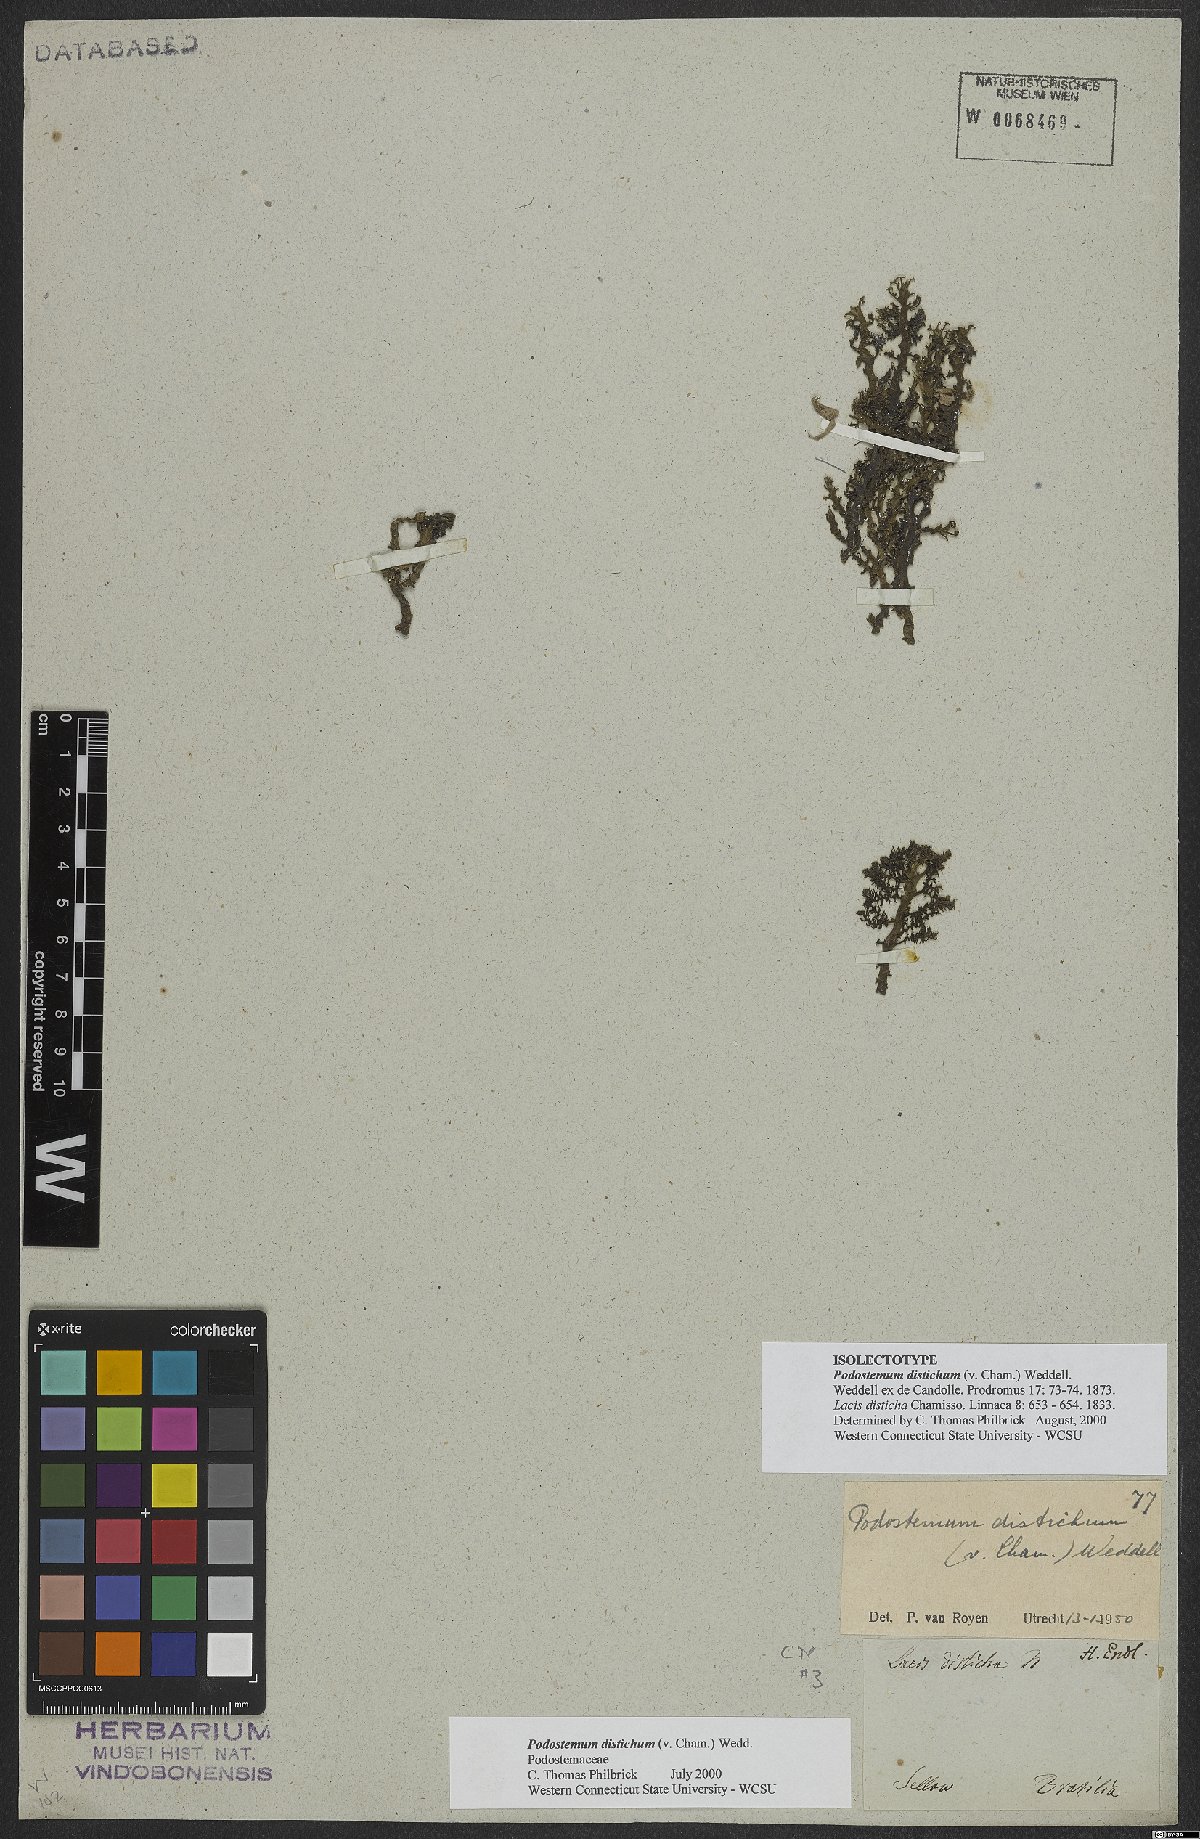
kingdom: Plantae
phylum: Tracheophyta
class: Magnoliopsida
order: Malpighiales
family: Podostemaceae
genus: Podostemum
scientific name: Podostemum distichum
